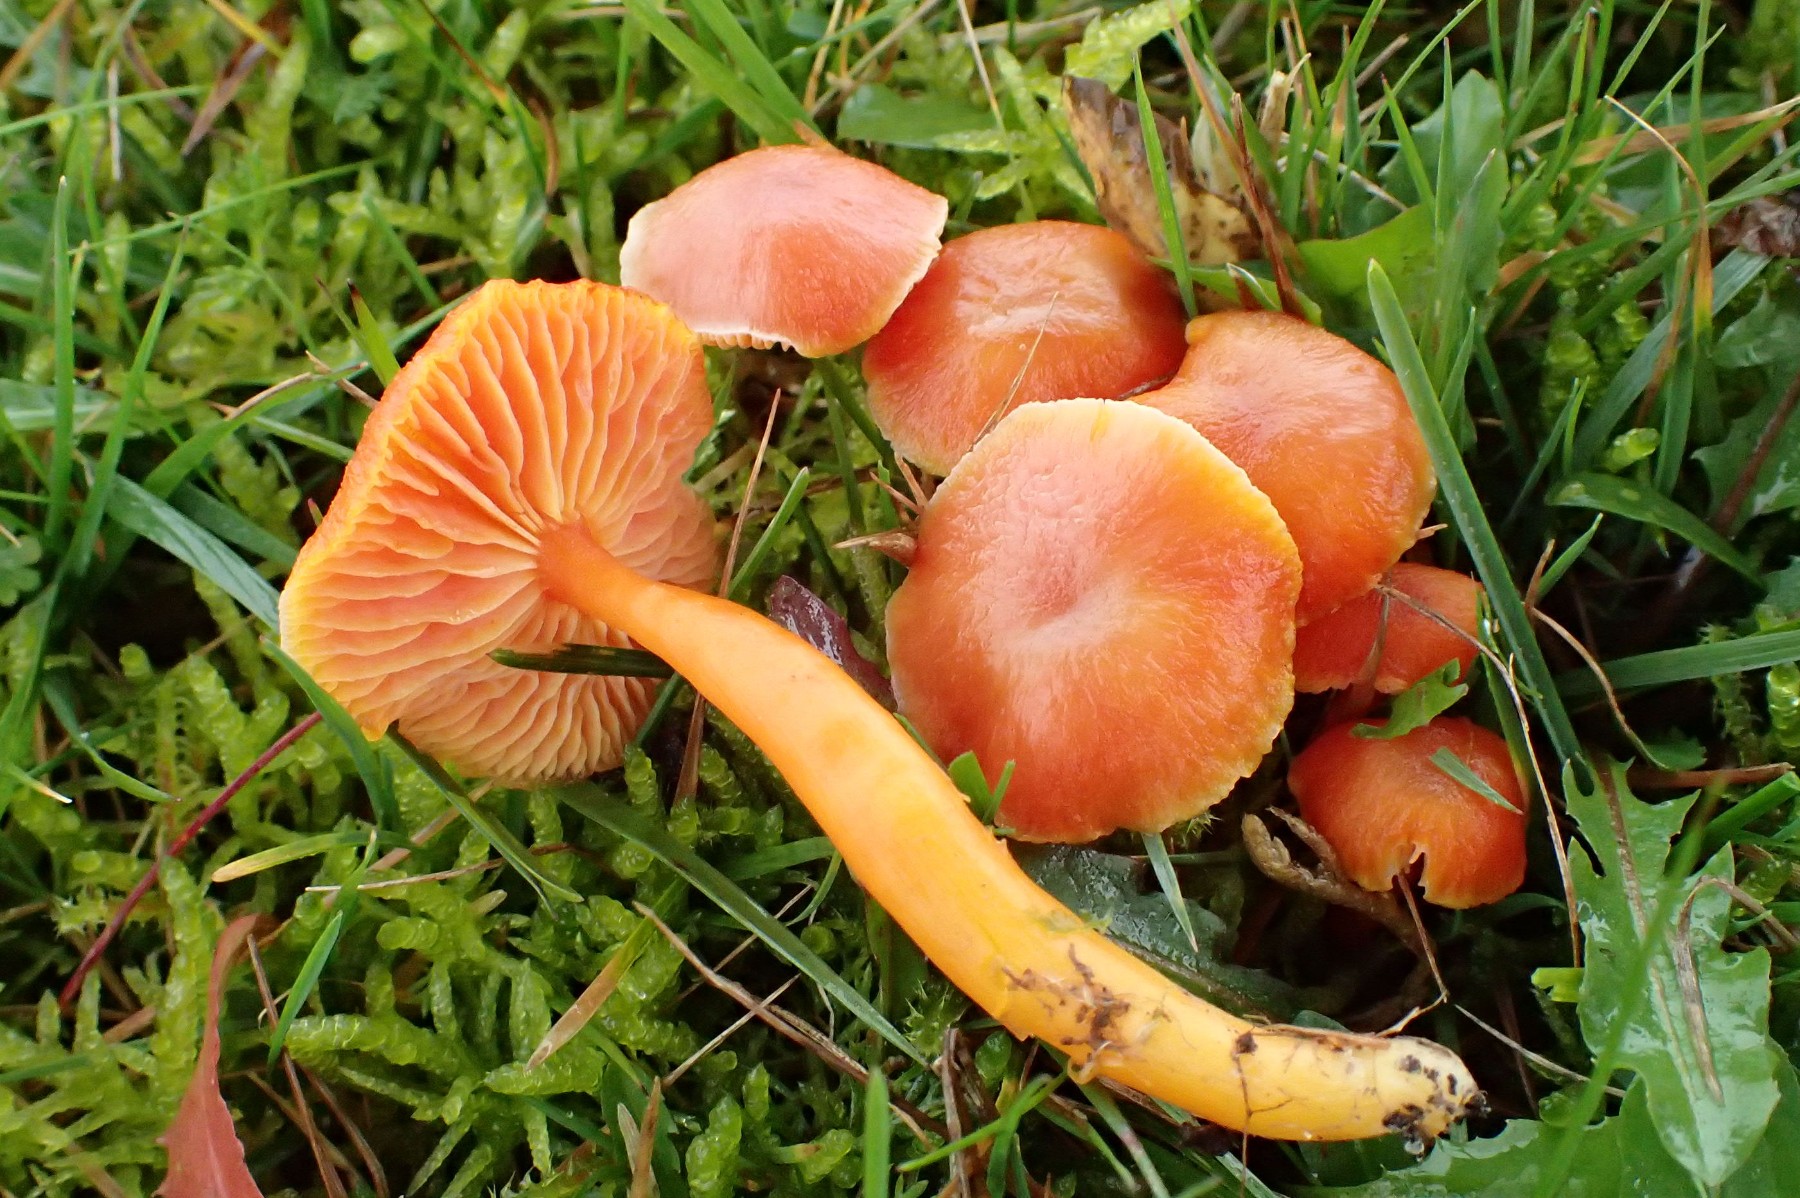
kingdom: Fungi
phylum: Basidiomycota
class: Agaricomycetes
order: Agaricales
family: Hygrophoraceae
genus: Hygrocybe
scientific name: Hygrocybe miniata
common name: mønje-vokshat
